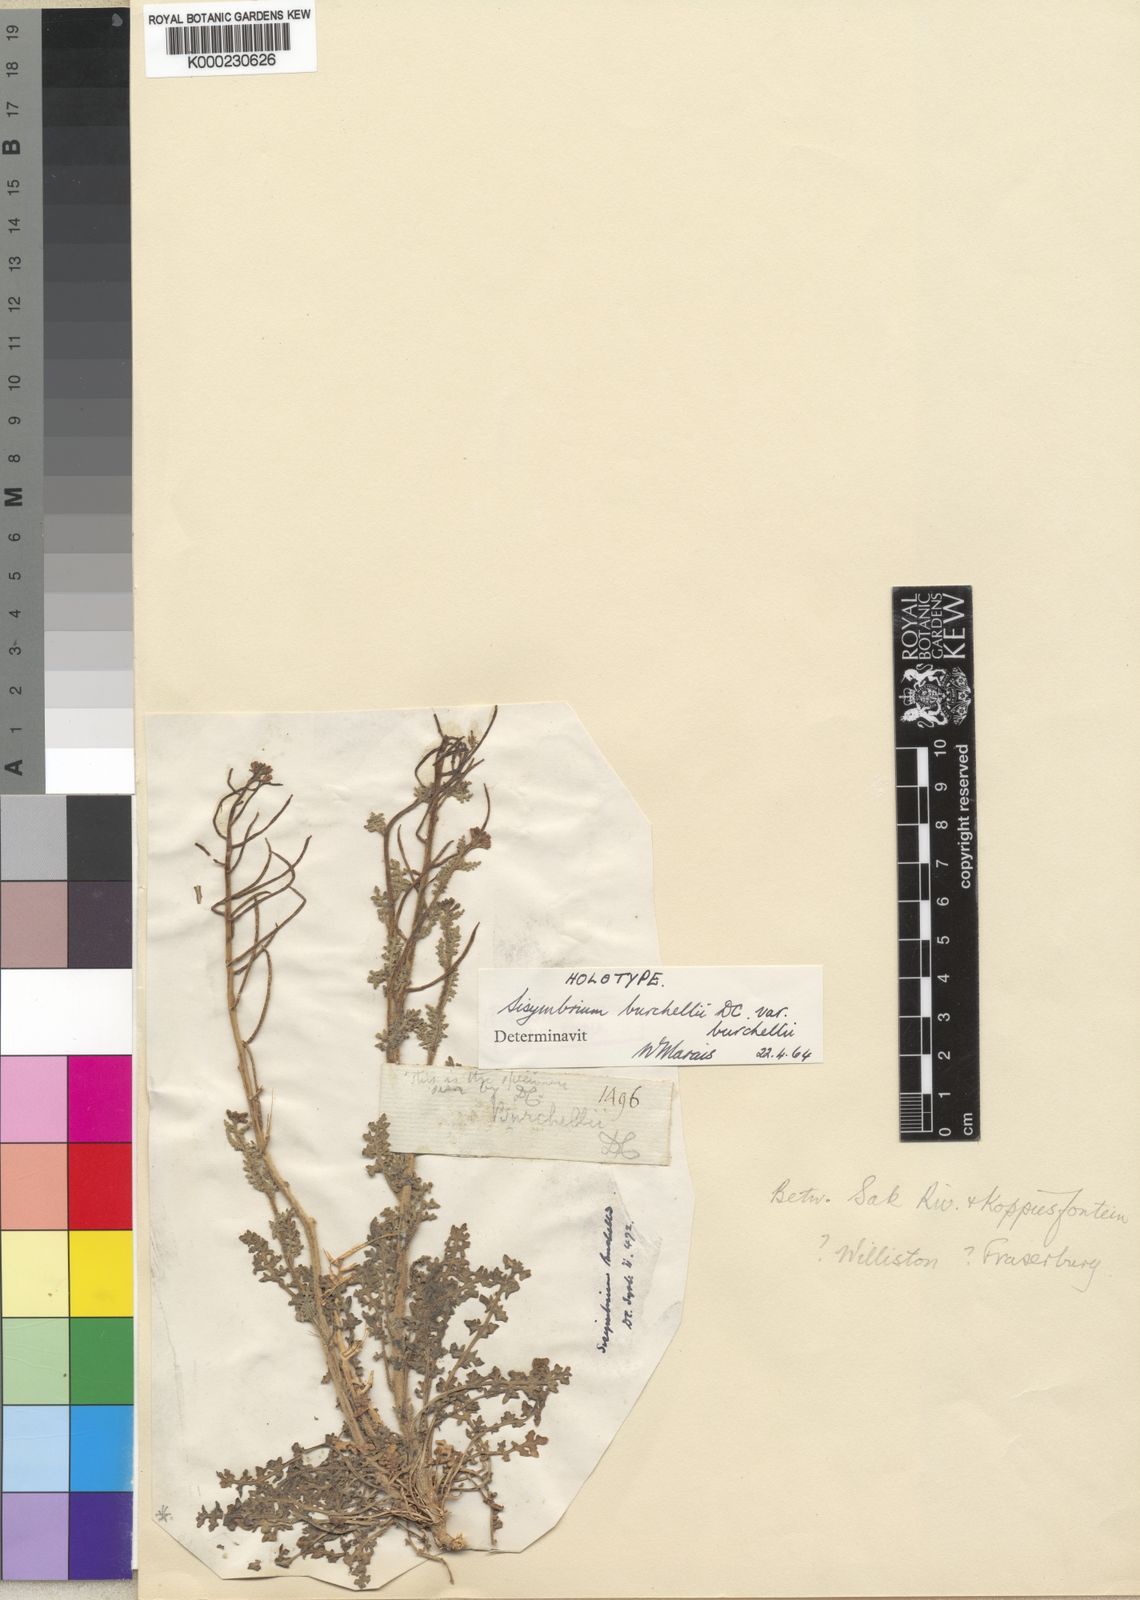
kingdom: Plantae
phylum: Tracheophyta
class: Magnoliopsida
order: Brassicales
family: Brassicaceae
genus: Sisymbrium
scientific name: Sisymbrium burchellii
